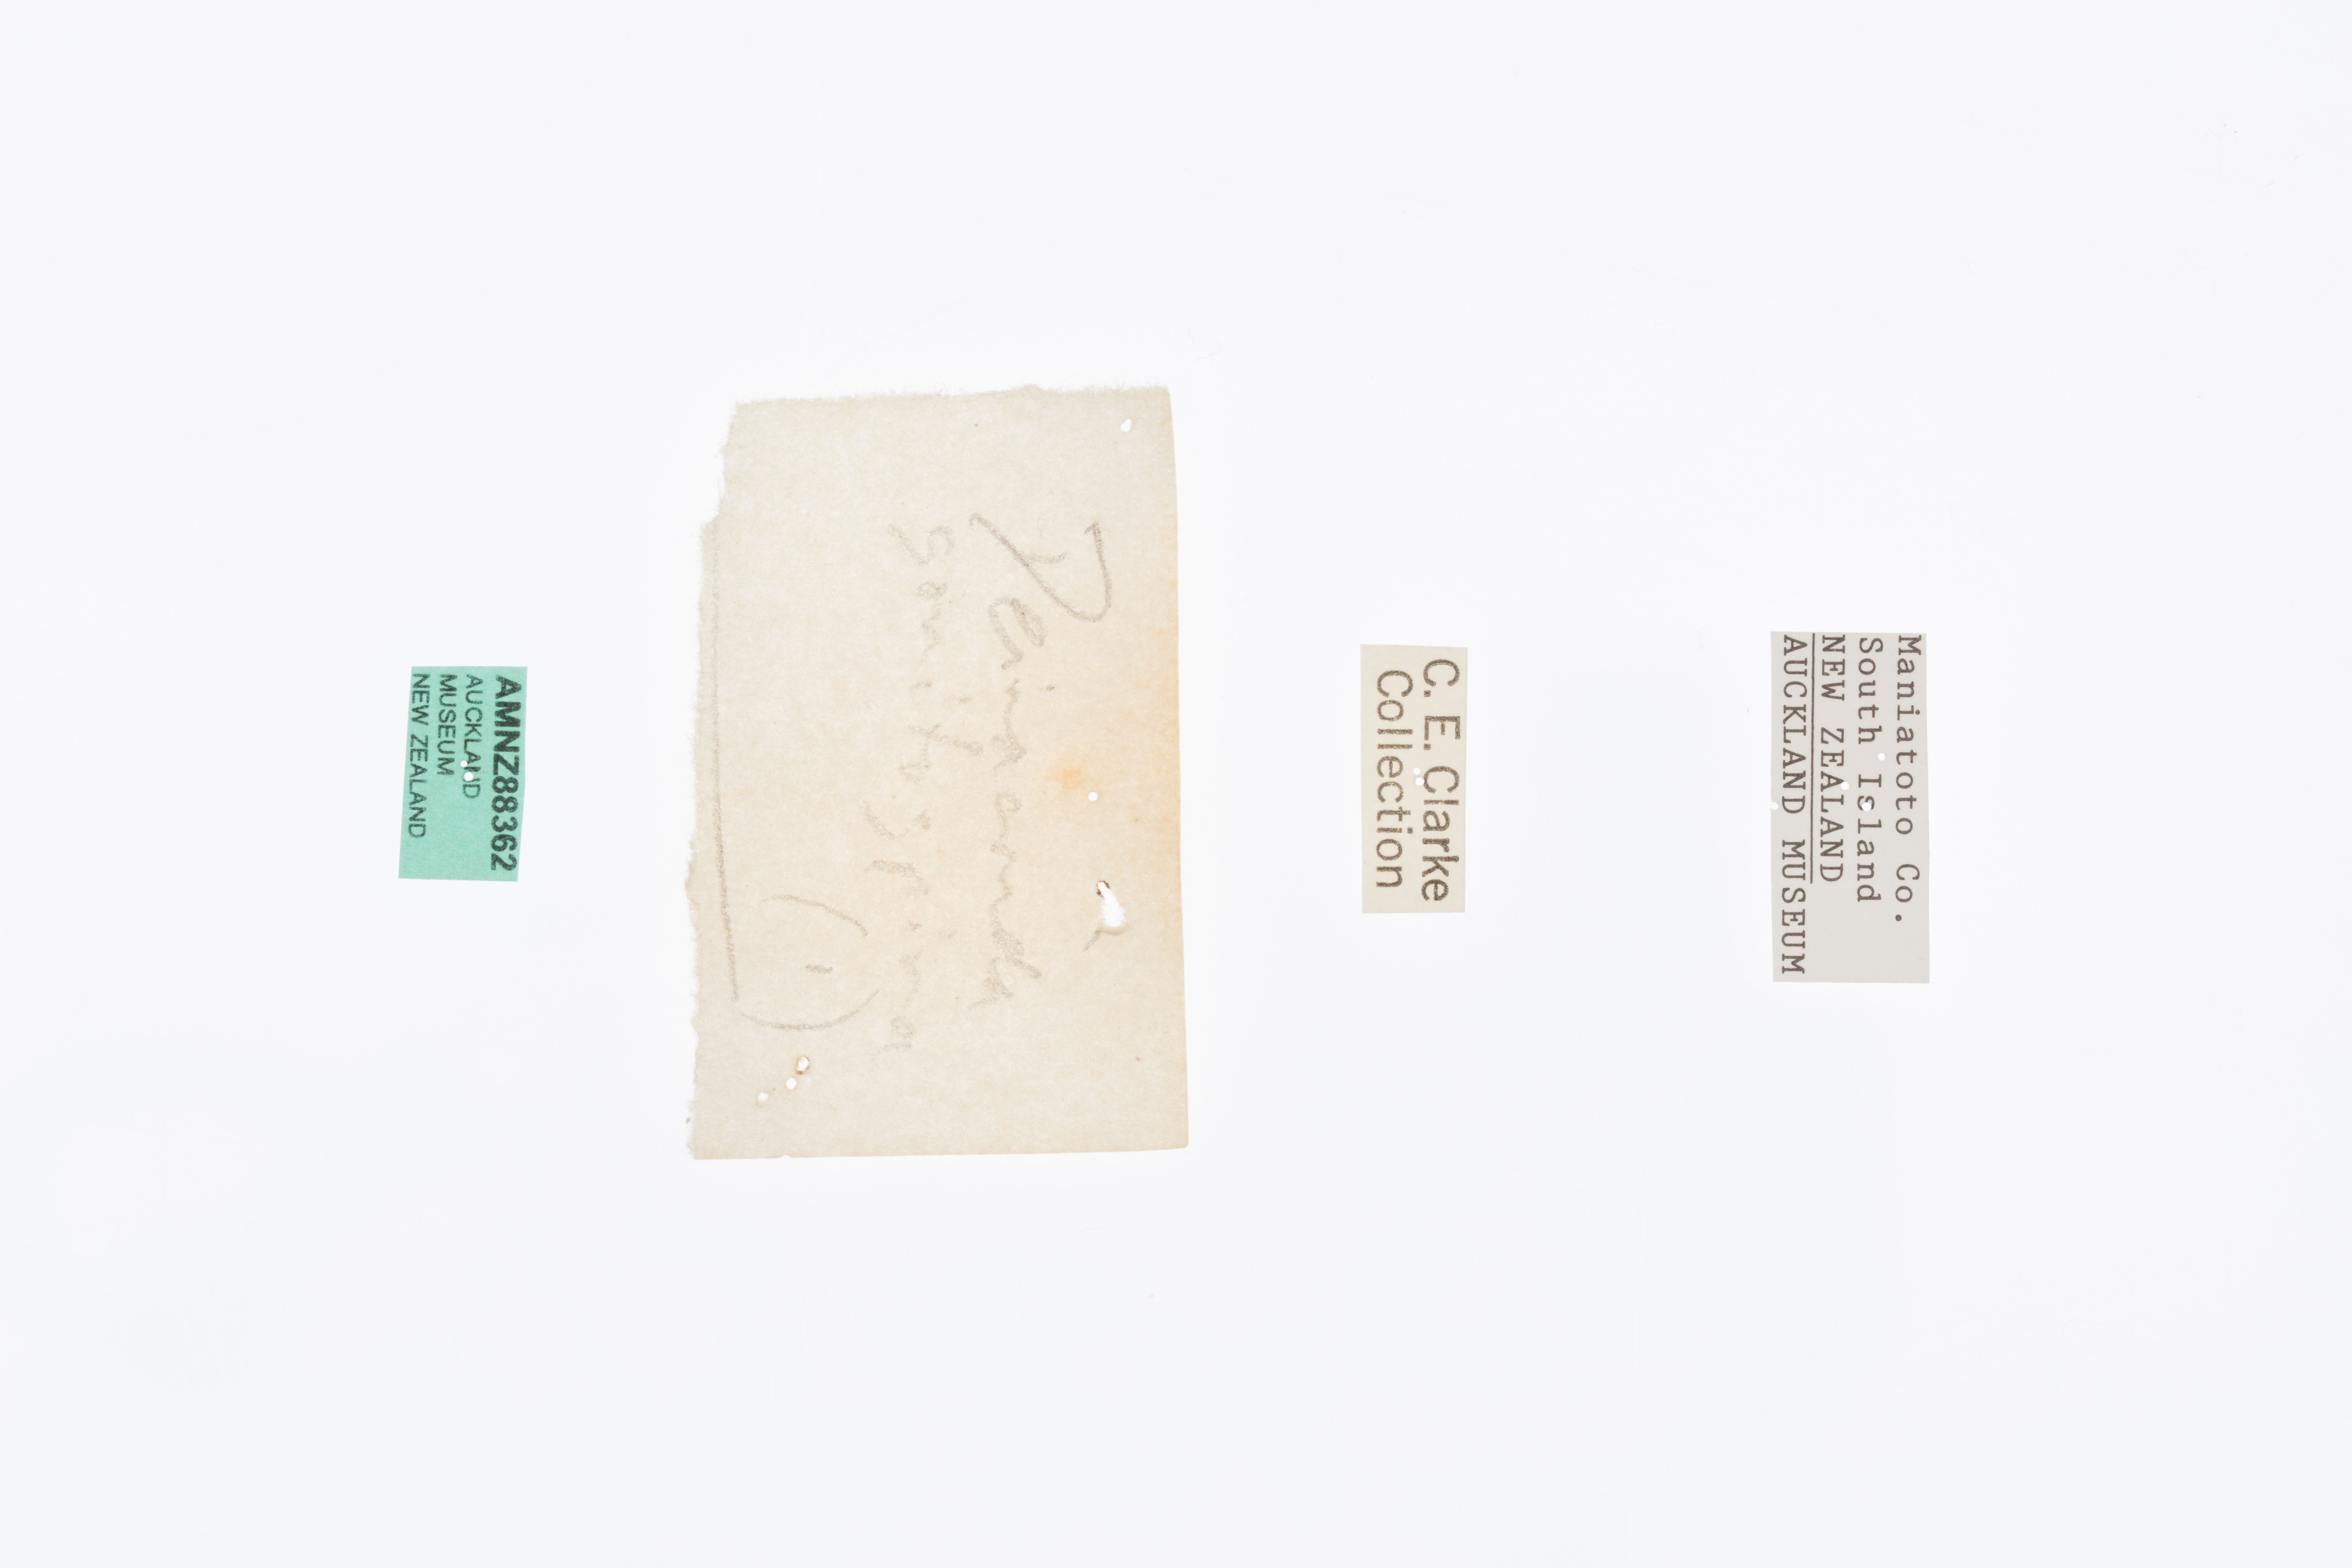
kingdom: Animalia
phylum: Arthropoda
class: Insecta
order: Orthoptera
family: Anostostomatidae
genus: Deinacrida
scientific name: Deinacrida connectens
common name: Scree weta
